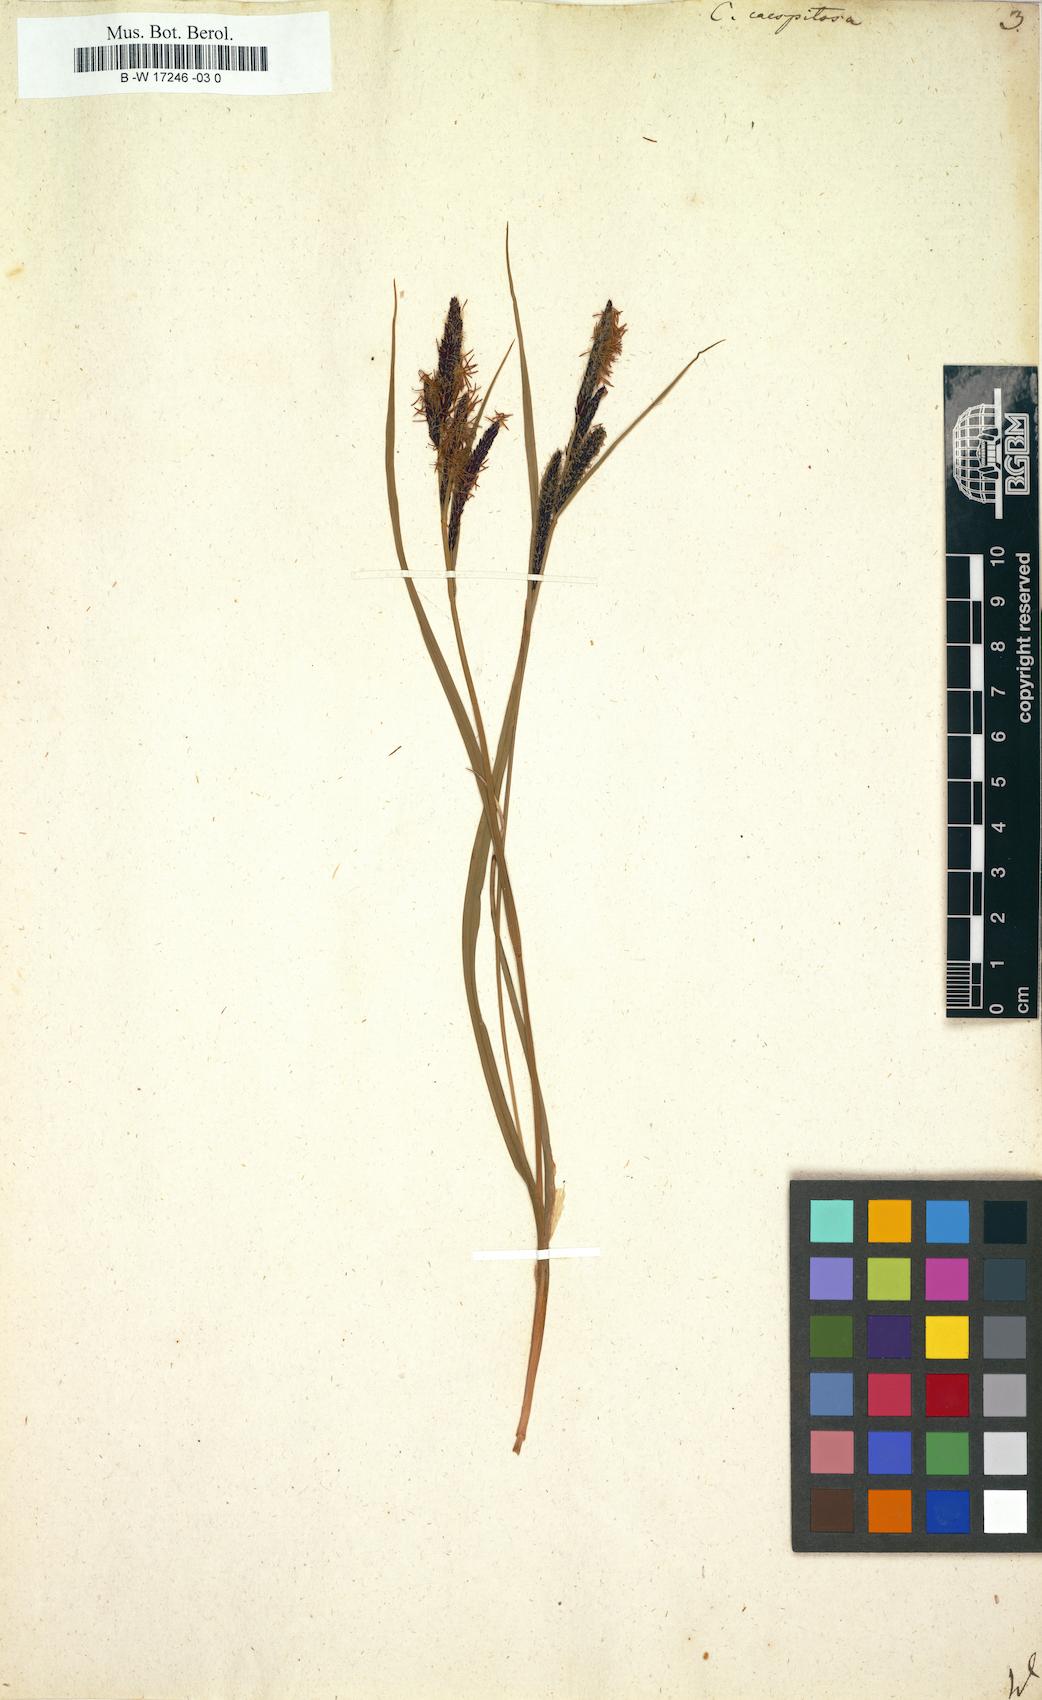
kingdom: Plantae
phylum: Tracheophyta
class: Liliopsida
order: Poales
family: Cyperaceae
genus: Carex
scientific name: Carex cespitosa
